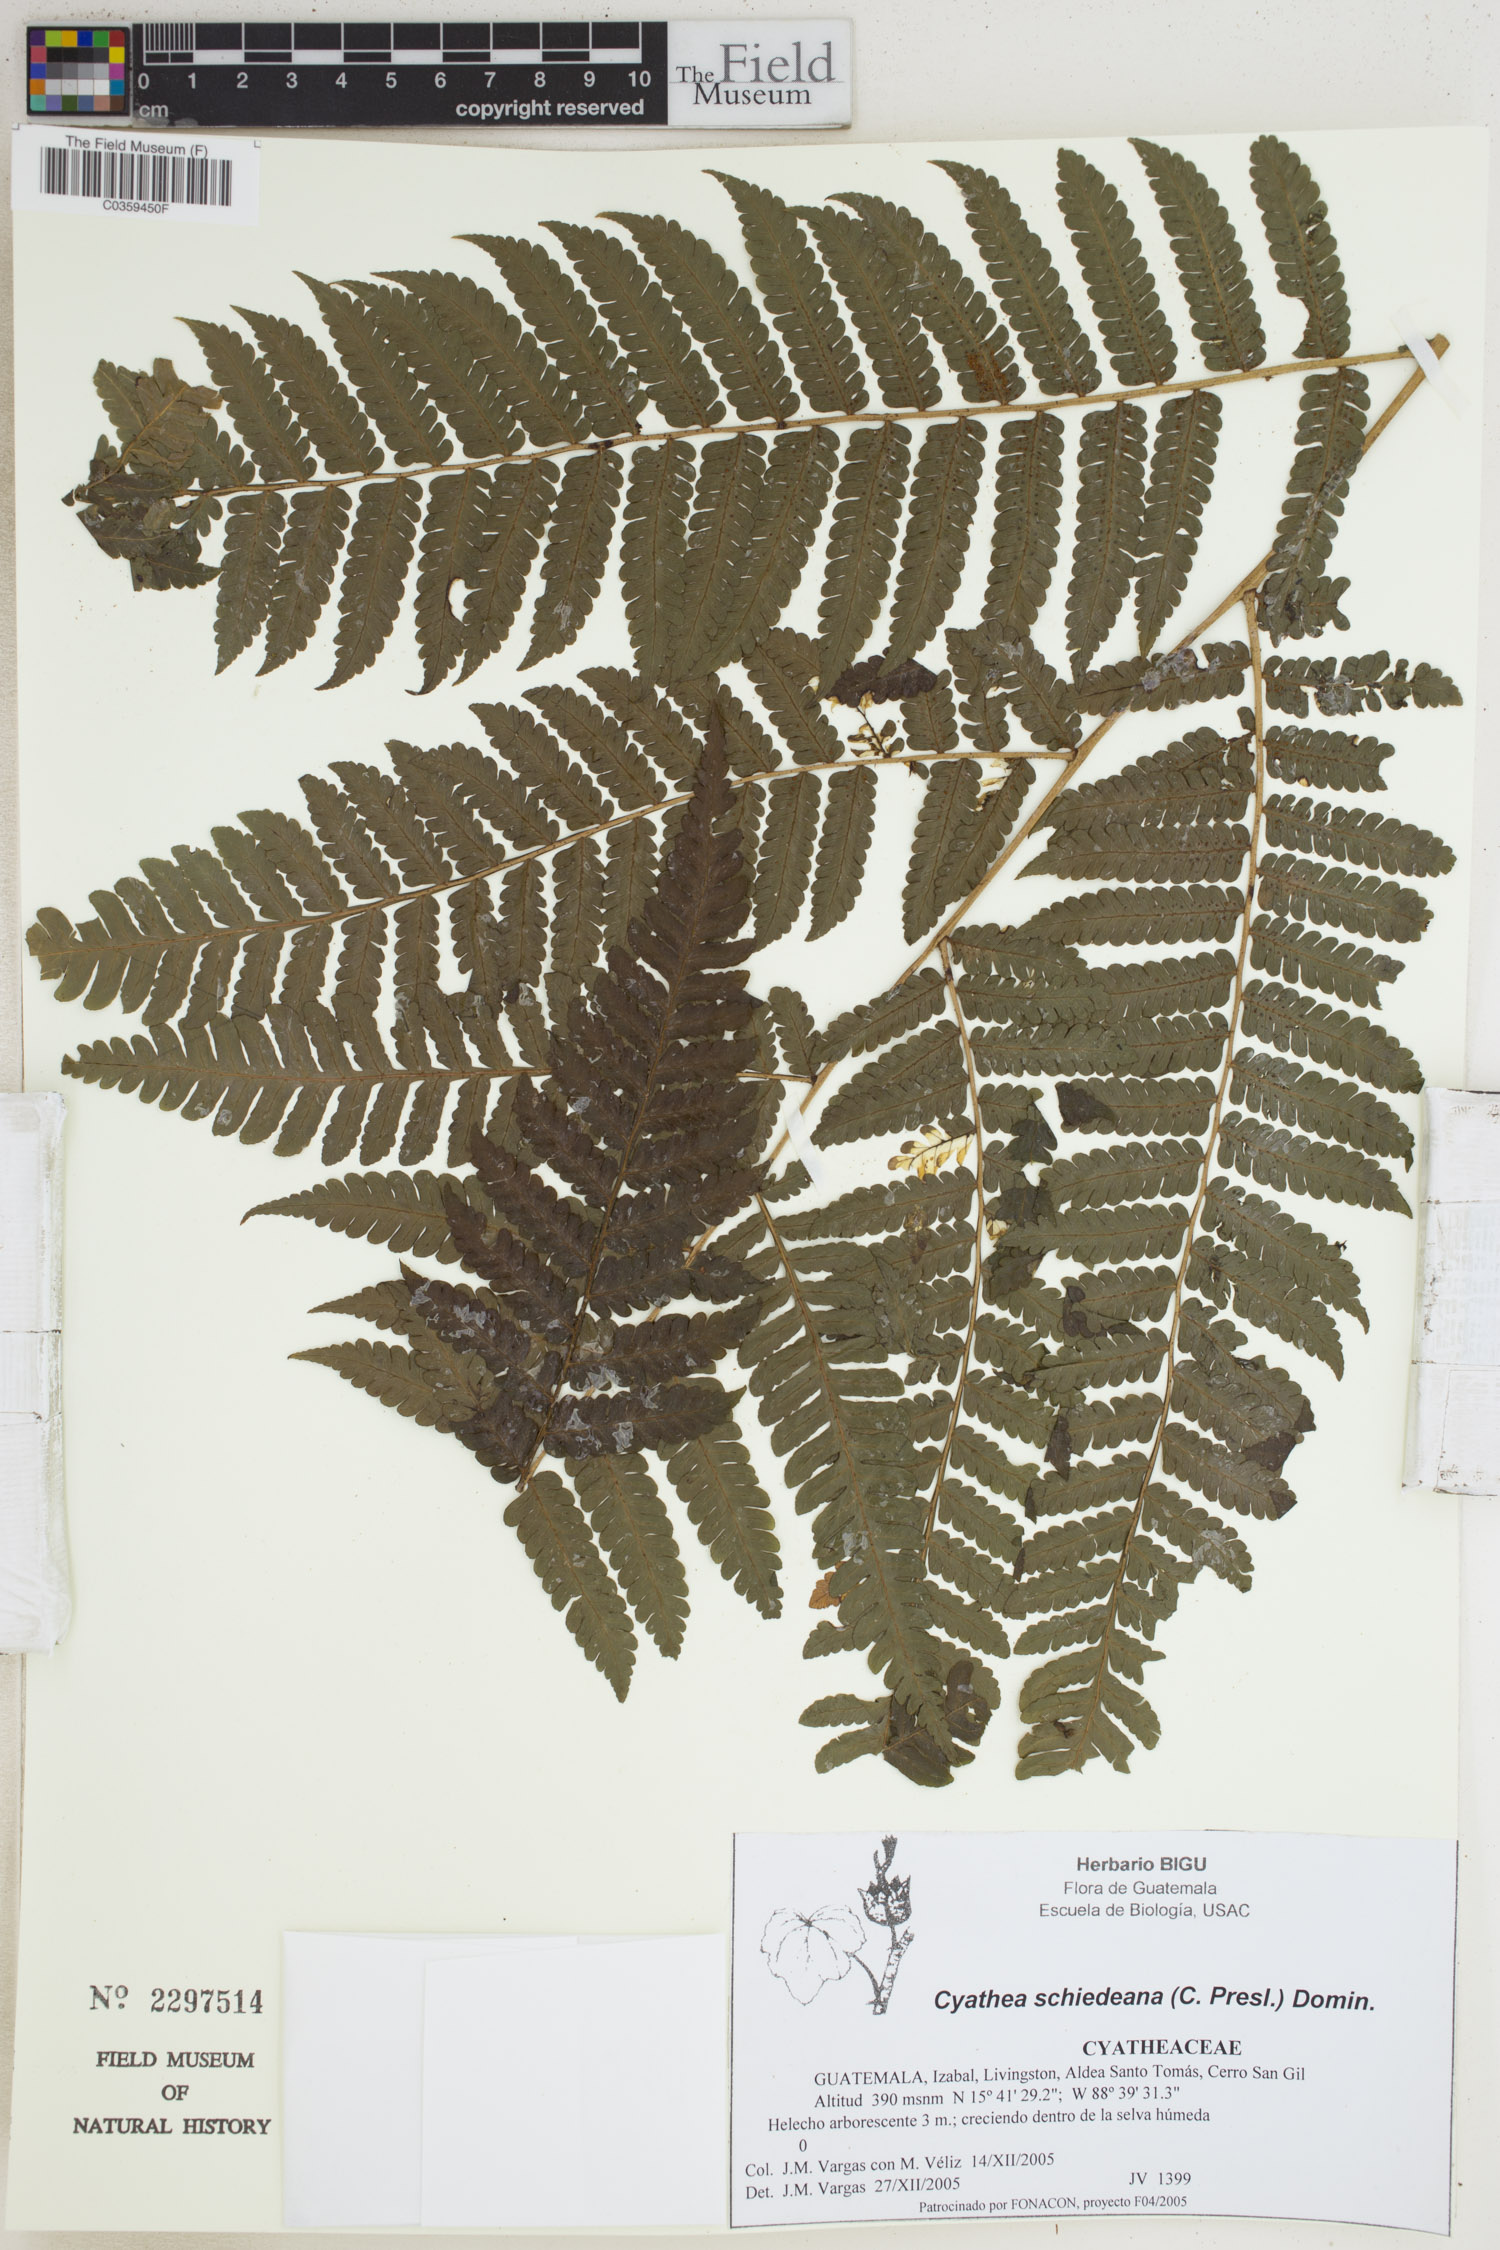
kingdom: Plantae
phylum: Tracheophyta
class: Polypodiopsida
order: Cyatheales
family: Cyatheaceae
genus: Cyathea
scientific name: Cyathea schiedeana
